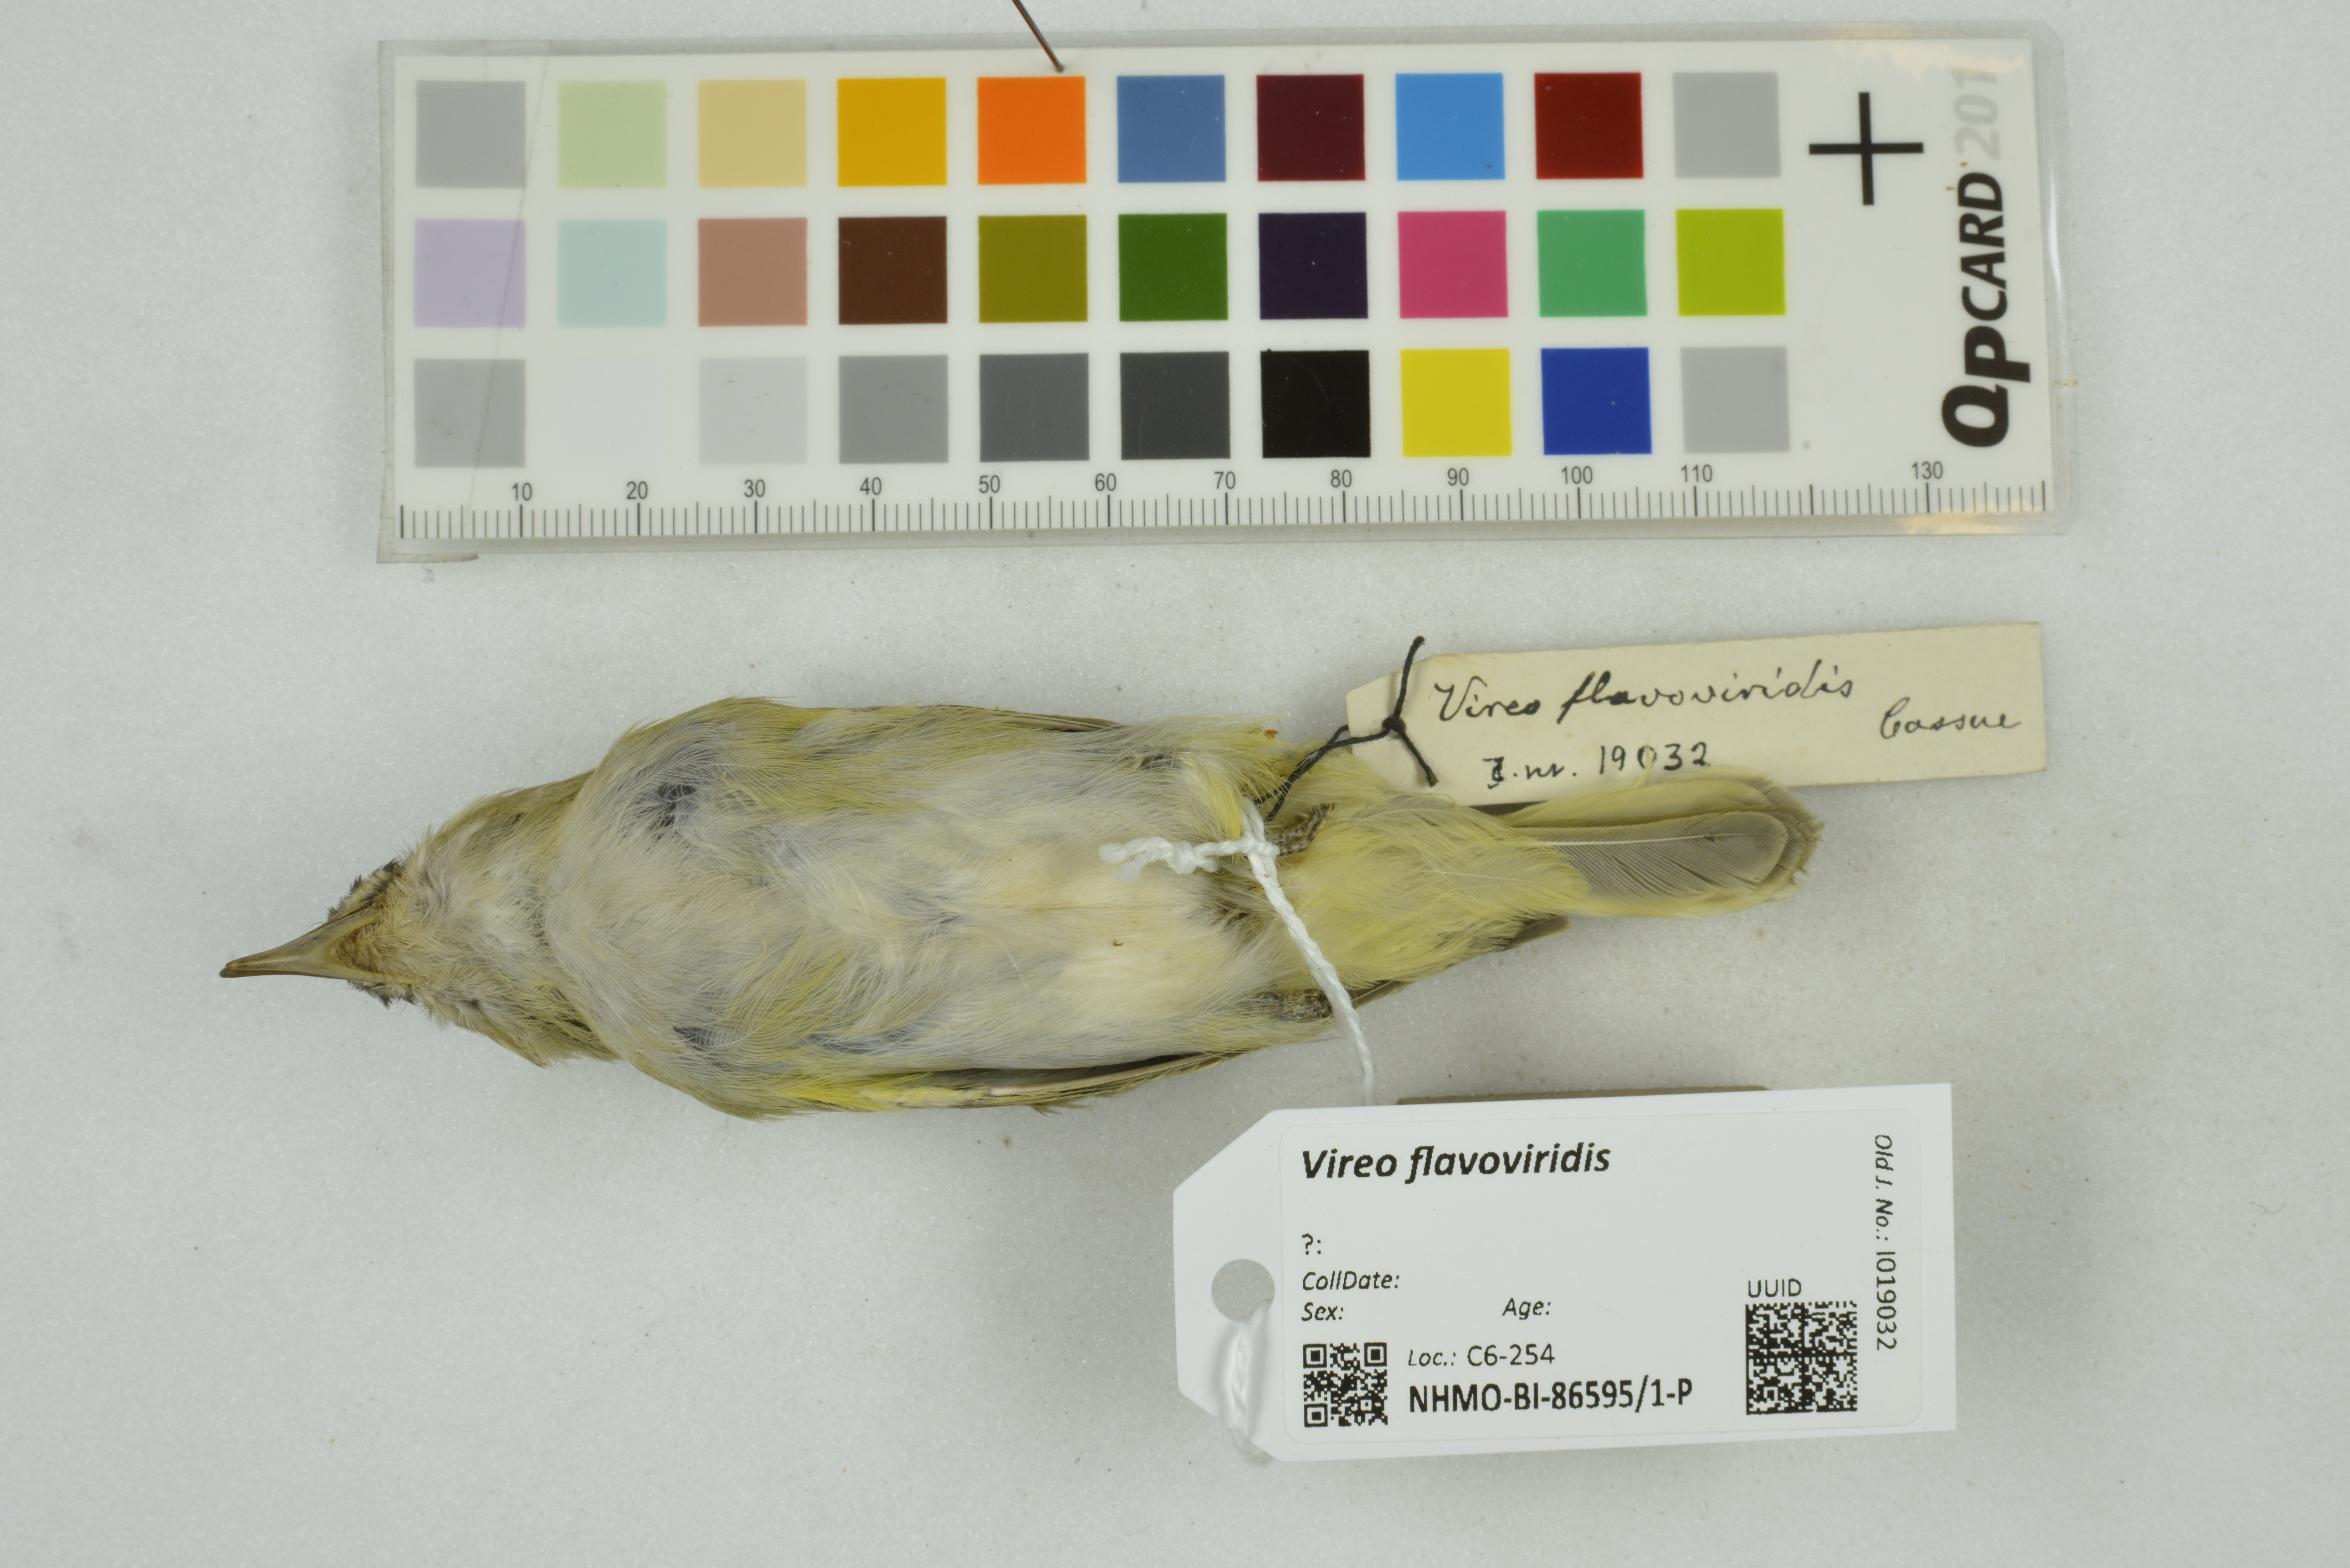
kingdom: Animalia
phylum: Chordata
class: Aves
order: Passeriformes
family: Vireonidae
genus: Vireo
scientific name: Vireo flavoviridis
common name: Yellow-green vireo
